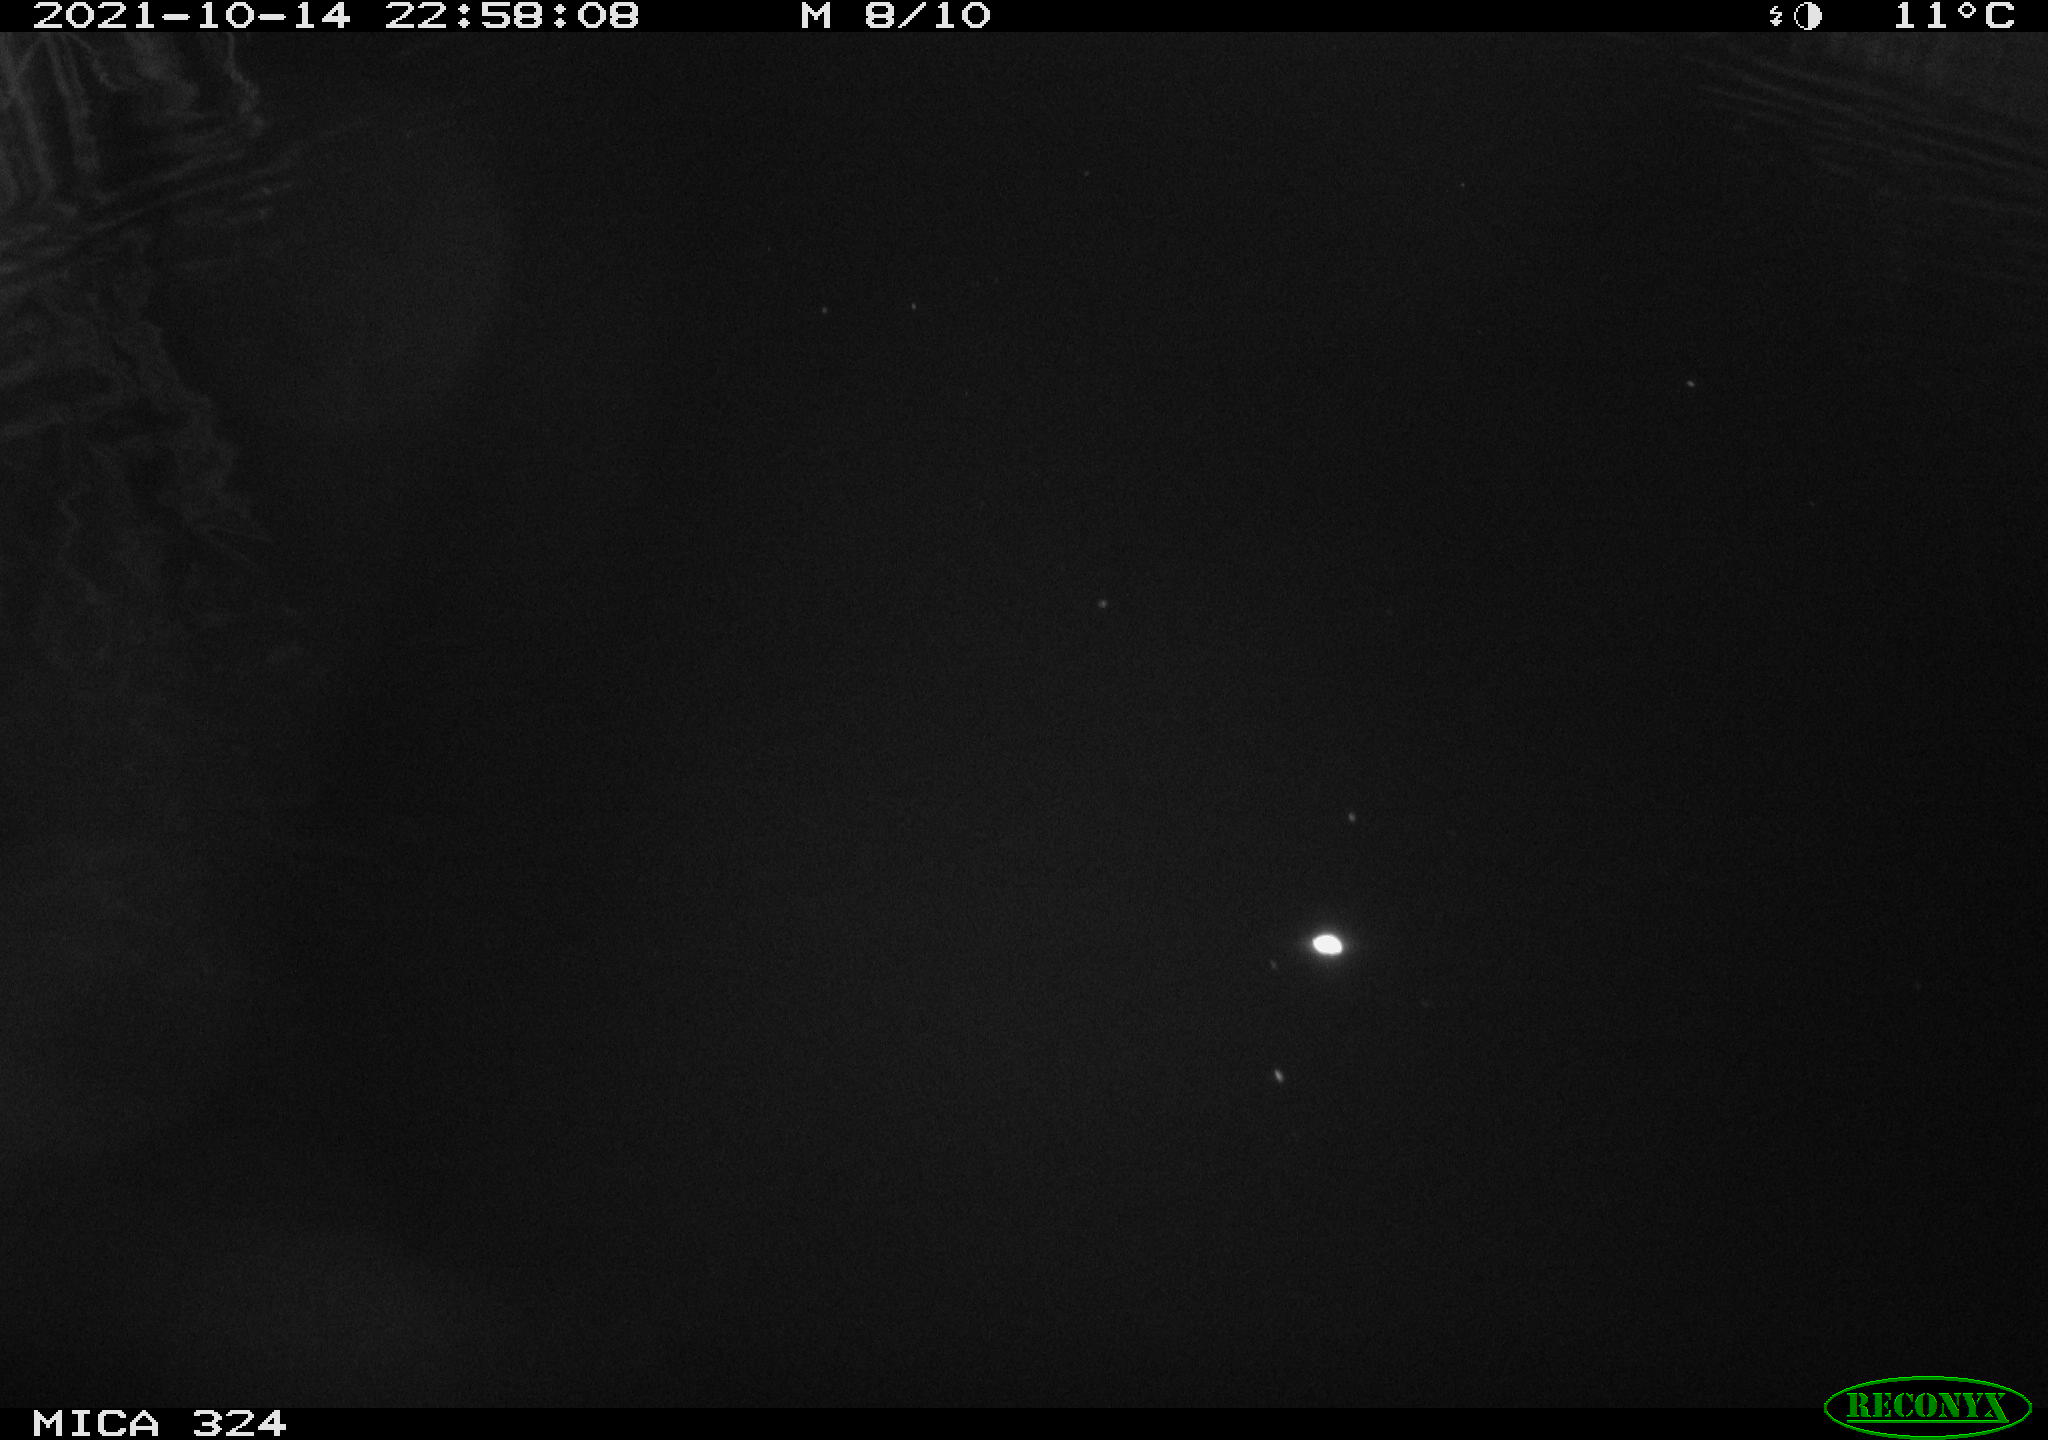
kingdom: Animalia
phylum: Chordata
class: Mammalia
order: Rodentia
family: Cricetidae
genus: Ondatra
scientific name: Ondatra zibethicus
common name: Muskrat
